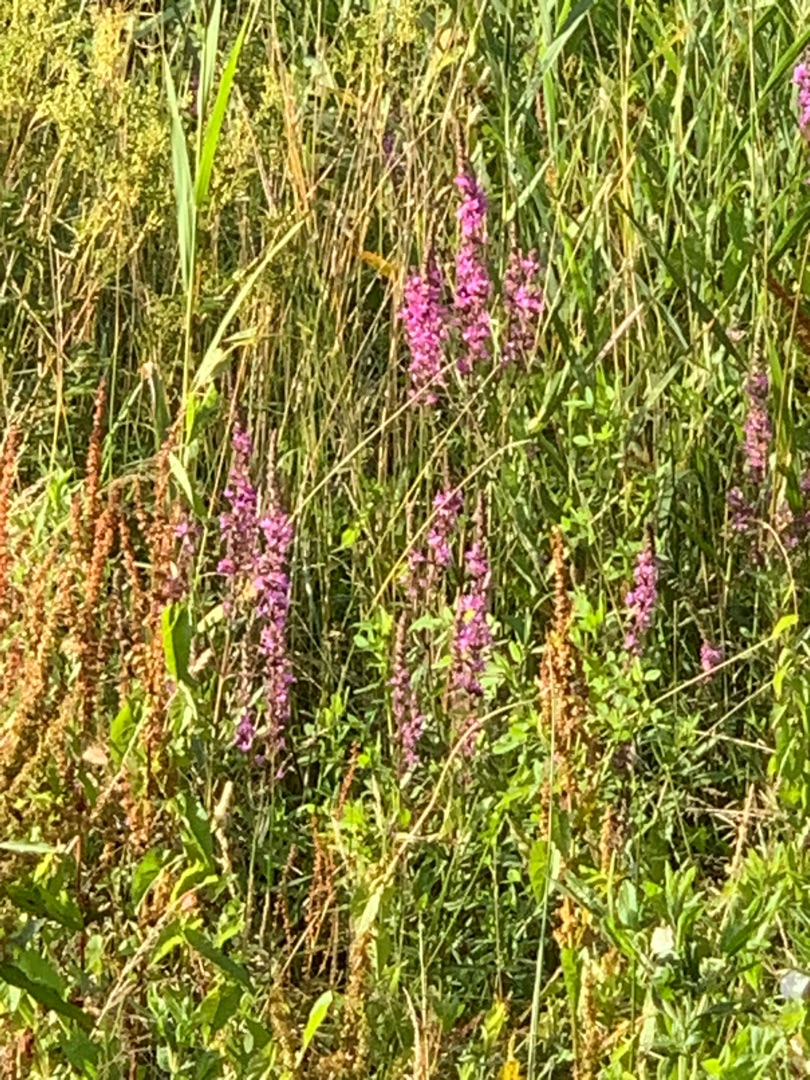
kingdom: Plantae
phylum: Tracheophyta
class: Magnoliopsida
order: Myrtales
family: Lythraceae
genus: Lythrum
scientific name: Lythrum salicaria
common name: Kattehale
